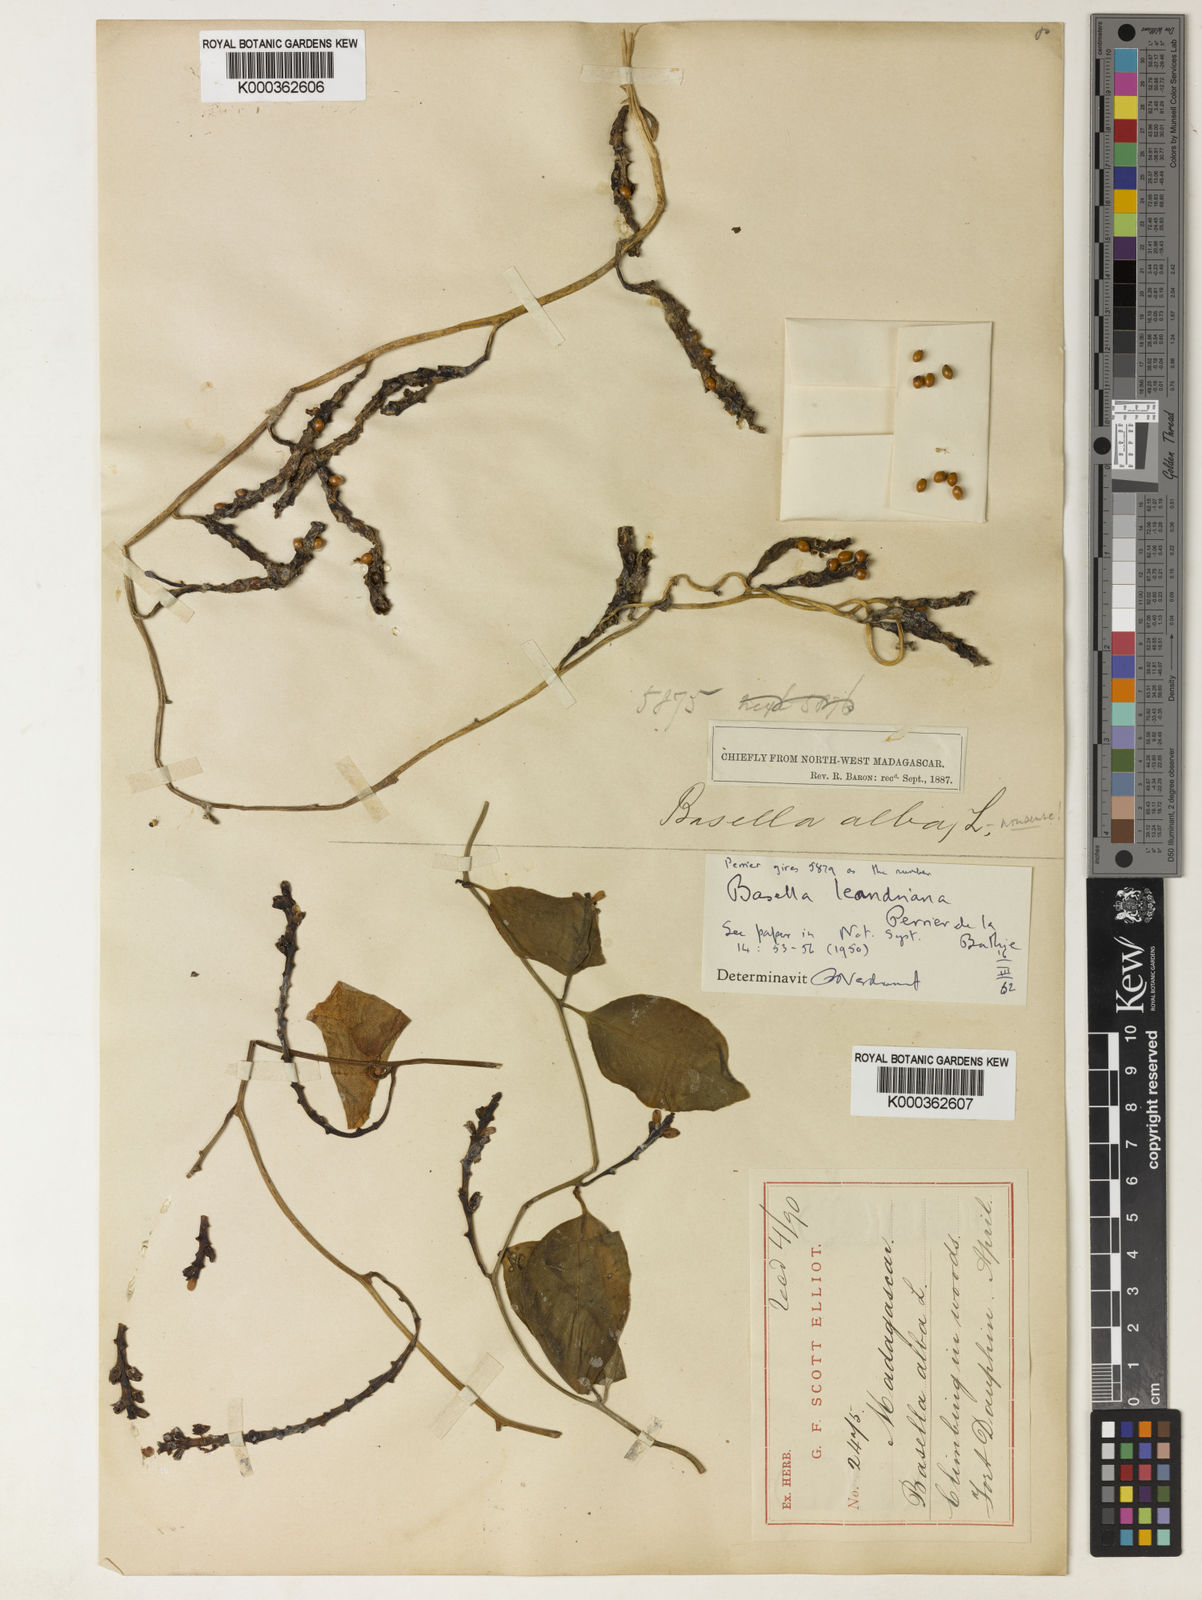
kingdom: Plantae
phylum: Tracheophyta
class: Magnoliopsida
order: Caryophyllales
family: Basellaceae
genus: Basella
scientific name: Basella
